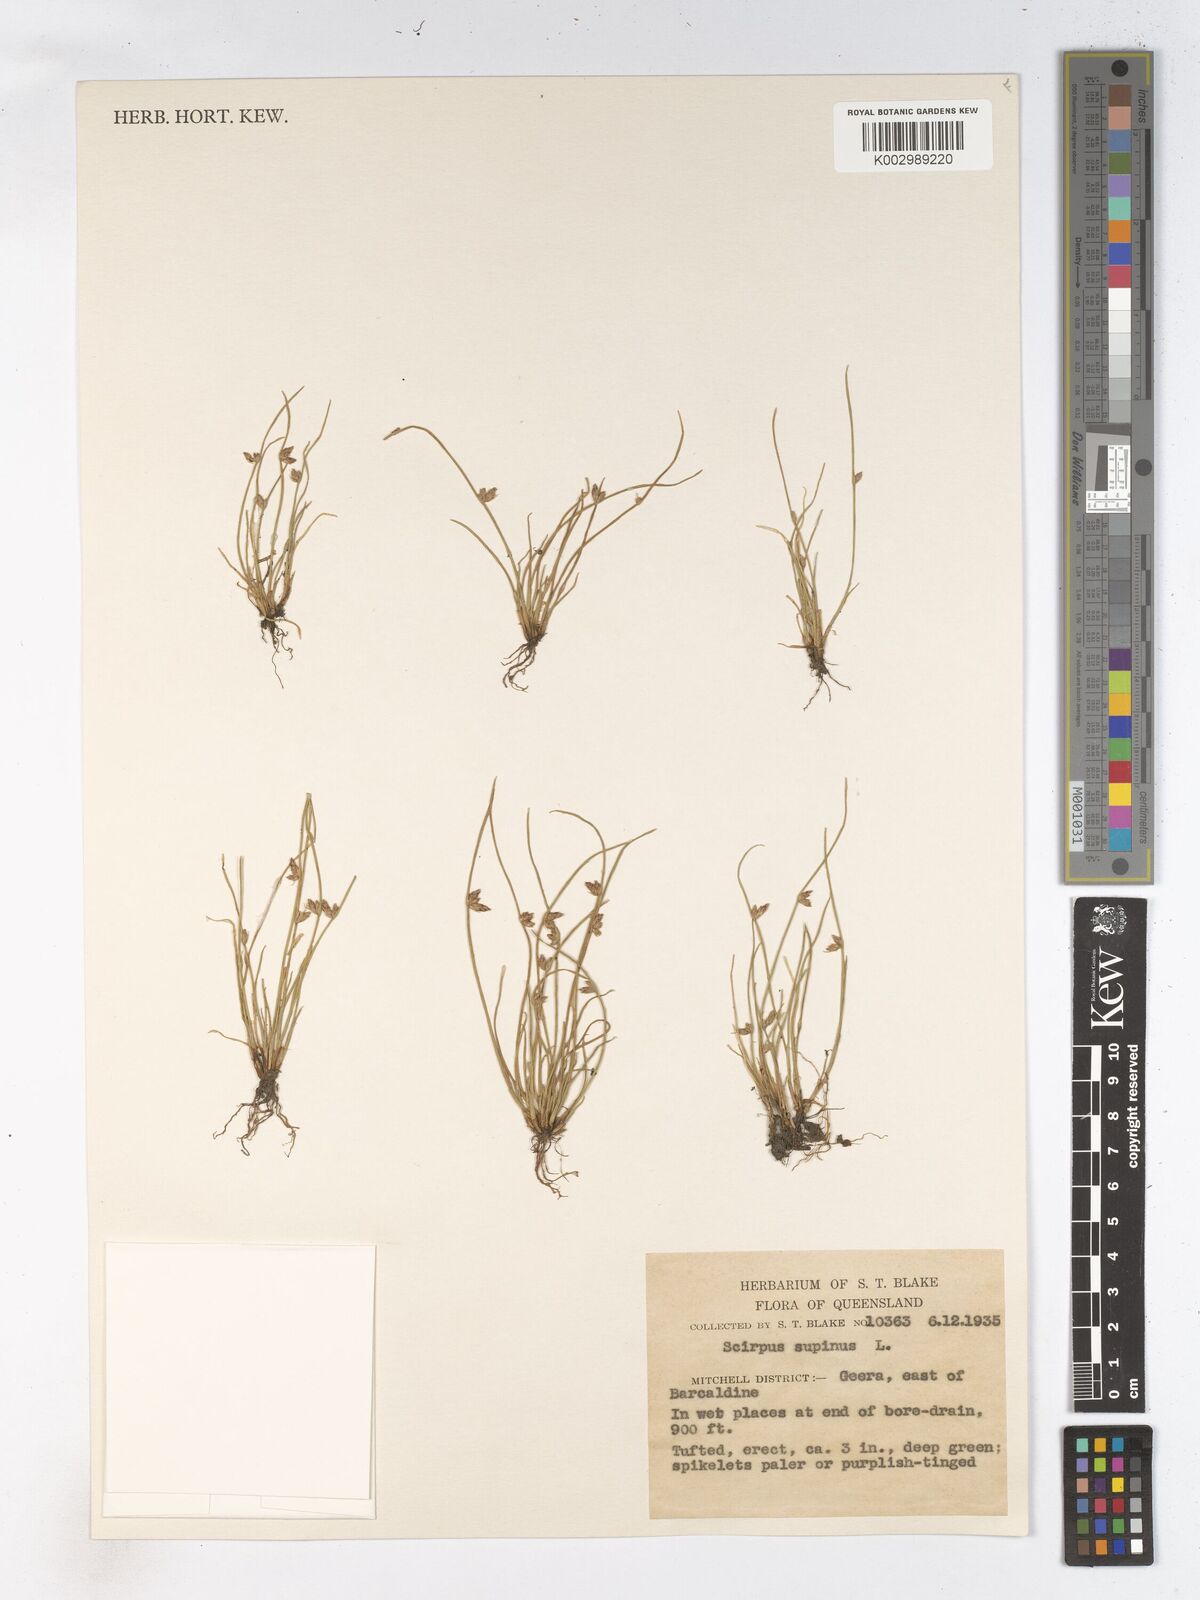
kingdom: Plantae
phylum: Tracheophyta
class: Liliopsida
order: Poales
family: Cyperaceae
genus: Schoenoplectiella
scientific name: Schoenoplectiella supina
